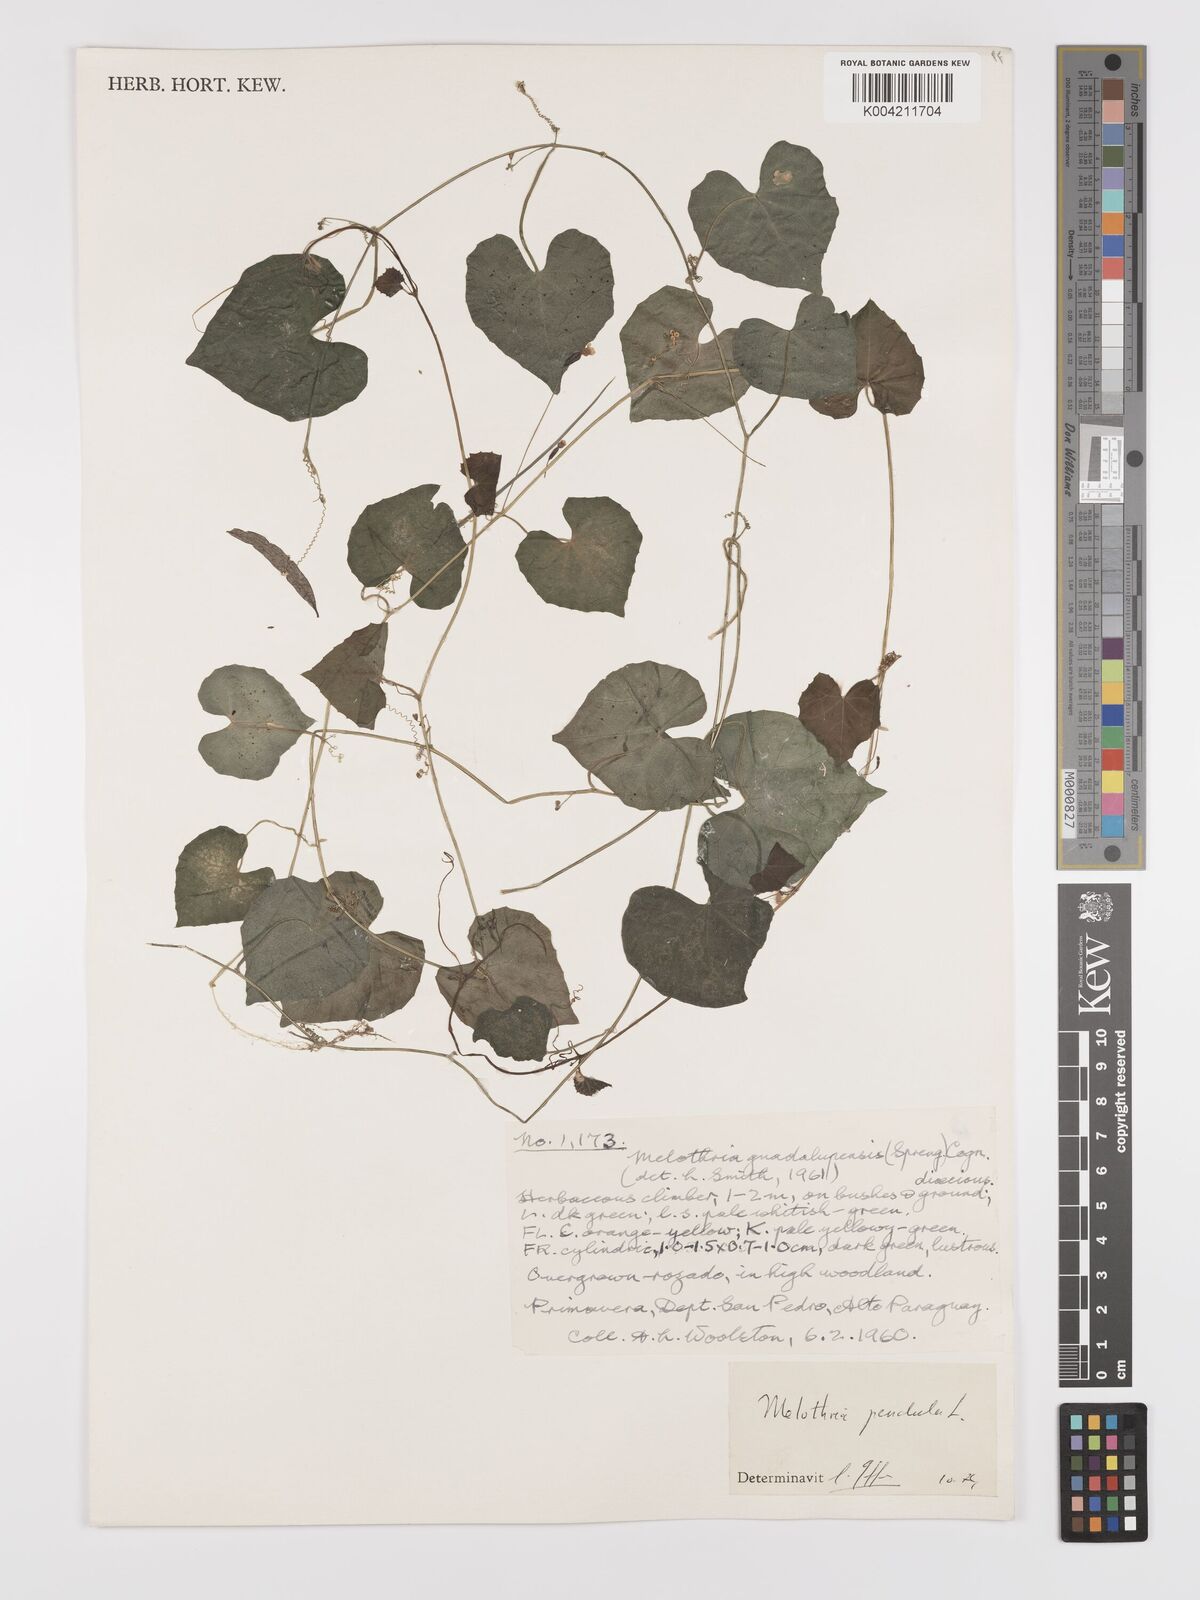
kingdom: Plantae
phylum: Tracheophyta
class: Magnoliopsida
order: Cucurbitales
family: Cucurbitaceae
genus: Melothria
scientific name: Melothria
